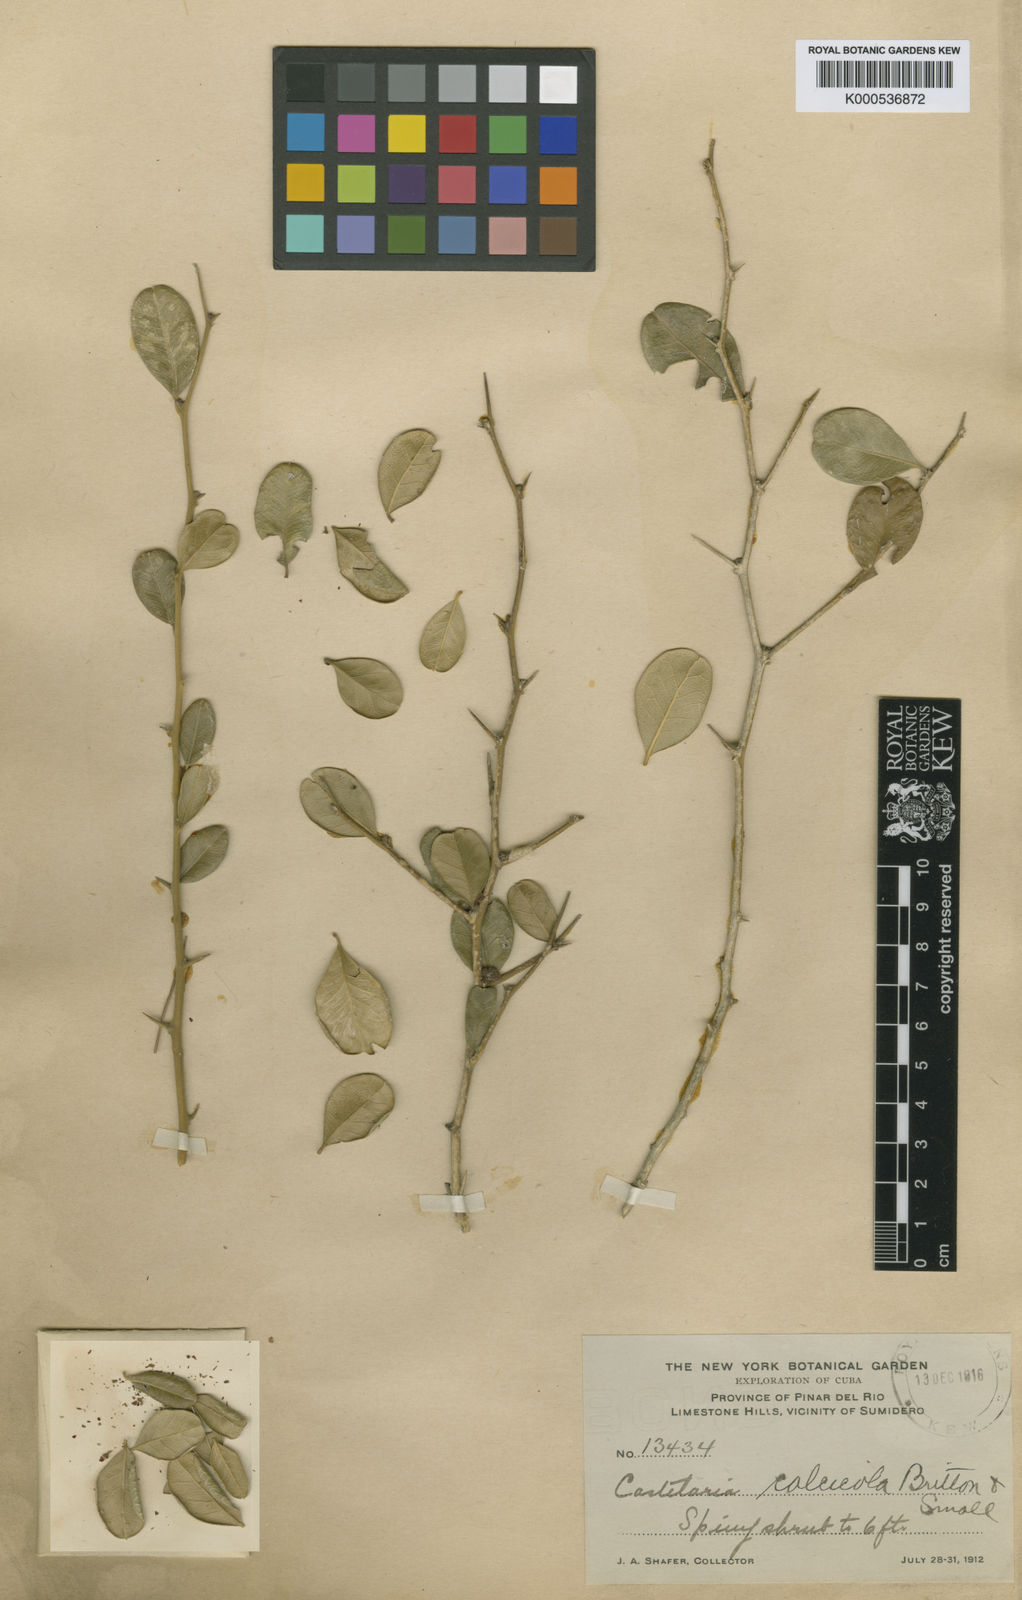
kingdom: Plantae
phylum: Tracheophyta
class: Magnoliopsida
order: Sapindales
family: Simaroubaceae
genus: Castela
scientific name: Castela calcicola
